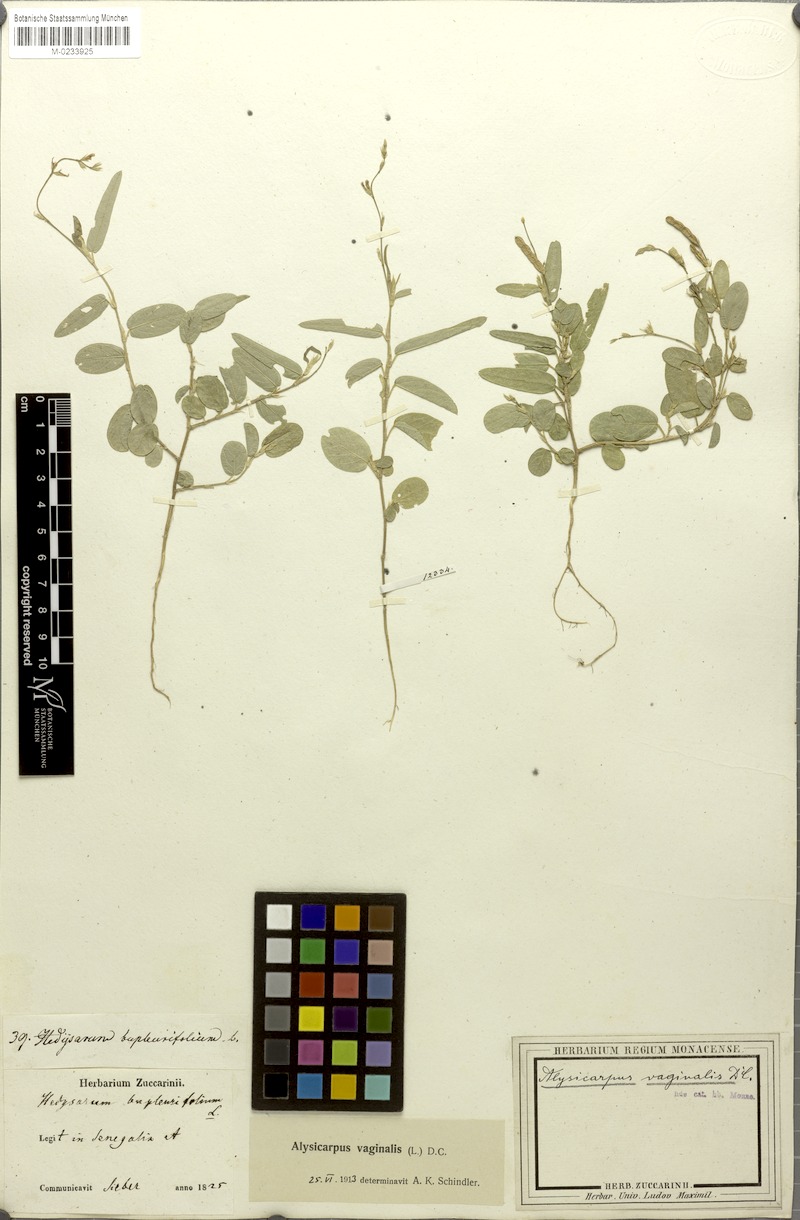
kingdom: Plantae
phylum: Tracheophyta
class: Magnoliopsida
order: Fabales
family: Fabaceae
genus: Alysicarpus
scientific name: Alysicarpus vaginalis
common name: White moneywort
